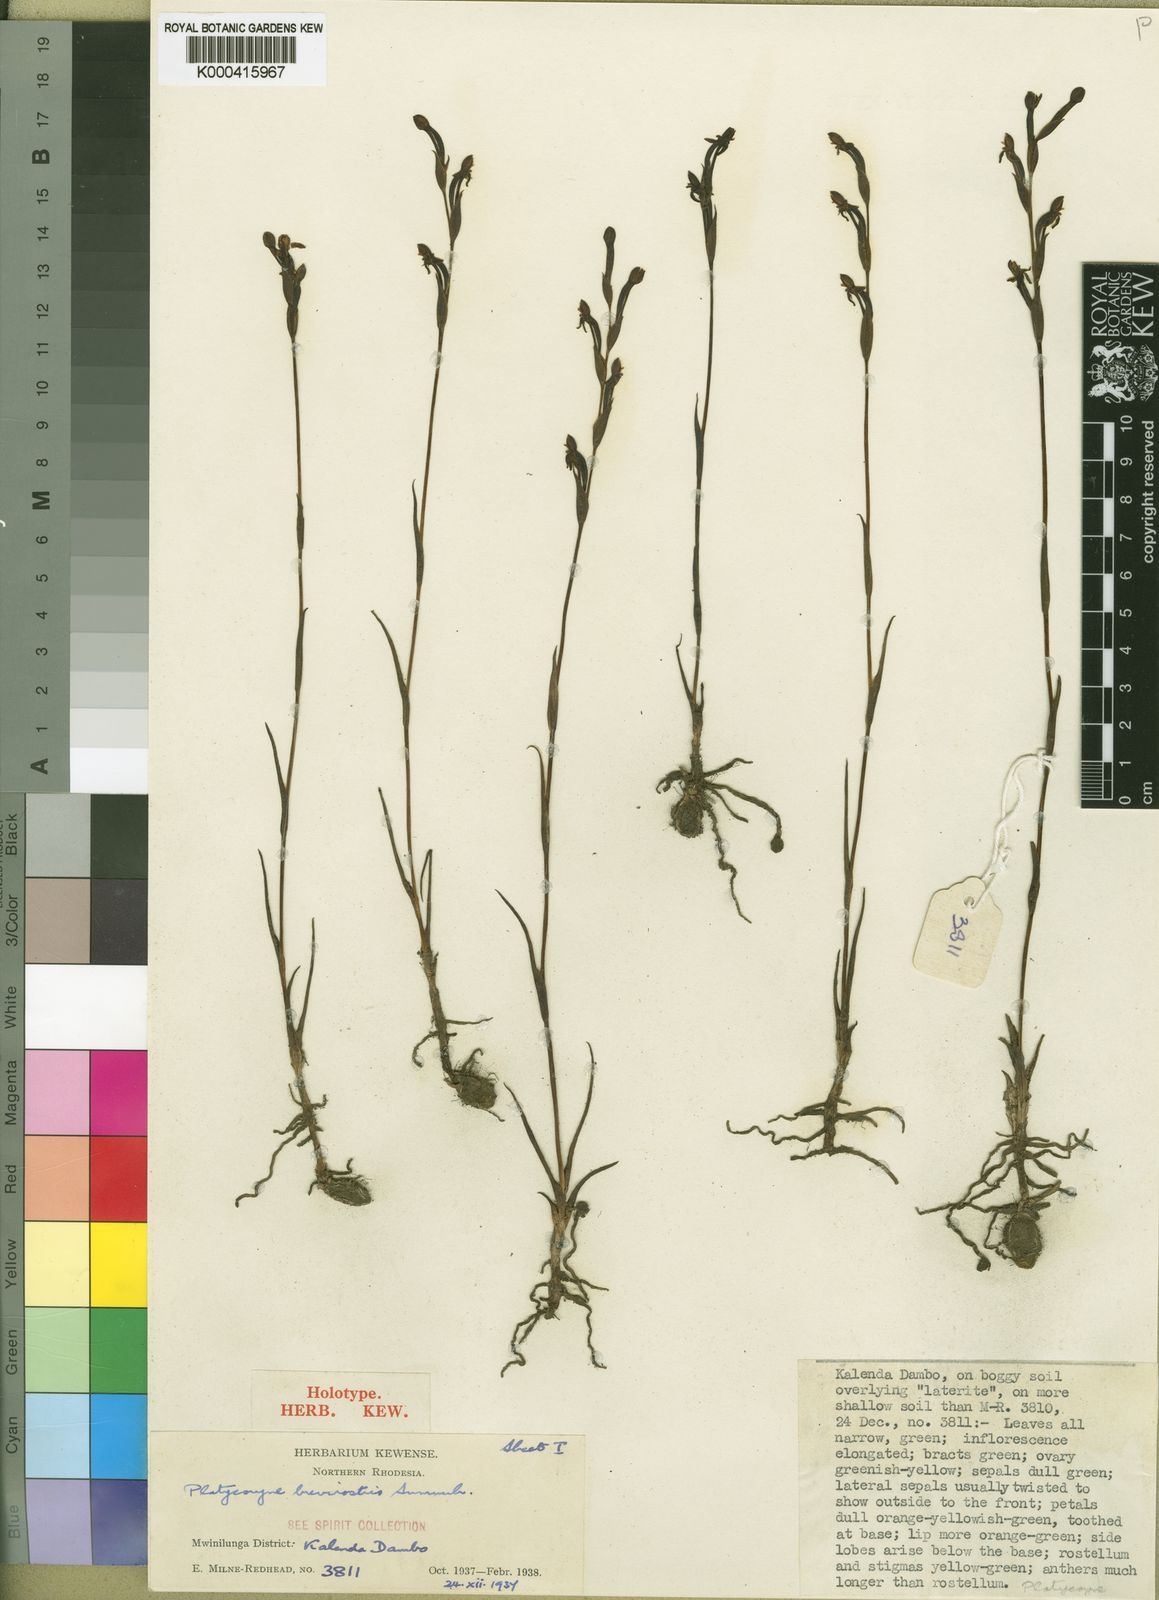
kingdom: Plantae
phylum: Tracheophyta
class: Liliopsida
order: Asparagales
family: Orchidaceae
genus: Platycoryne
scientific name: Platycoryne brevirostris
